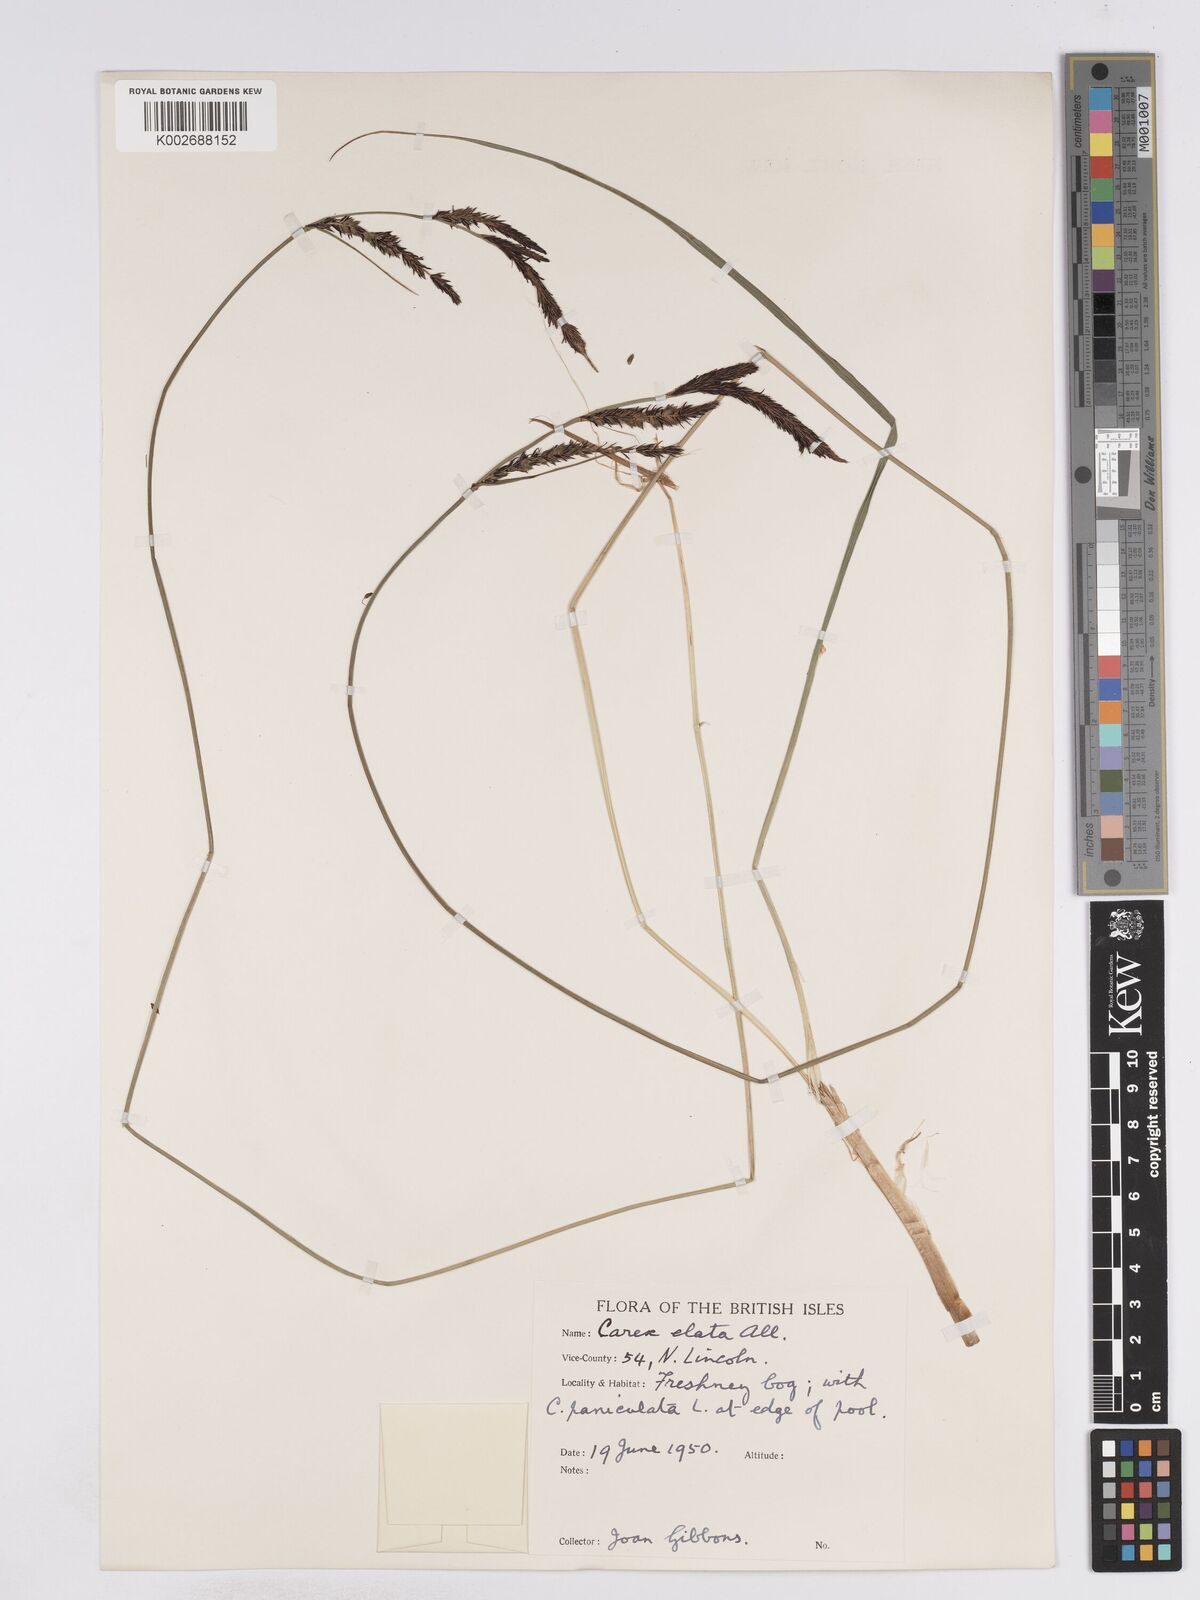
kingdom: Plantae
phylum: Tracheophyta
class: Liliopsida
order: Poales
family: Cyperaceae
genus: Carex
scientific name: Carex elata
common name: Tufted sedge
